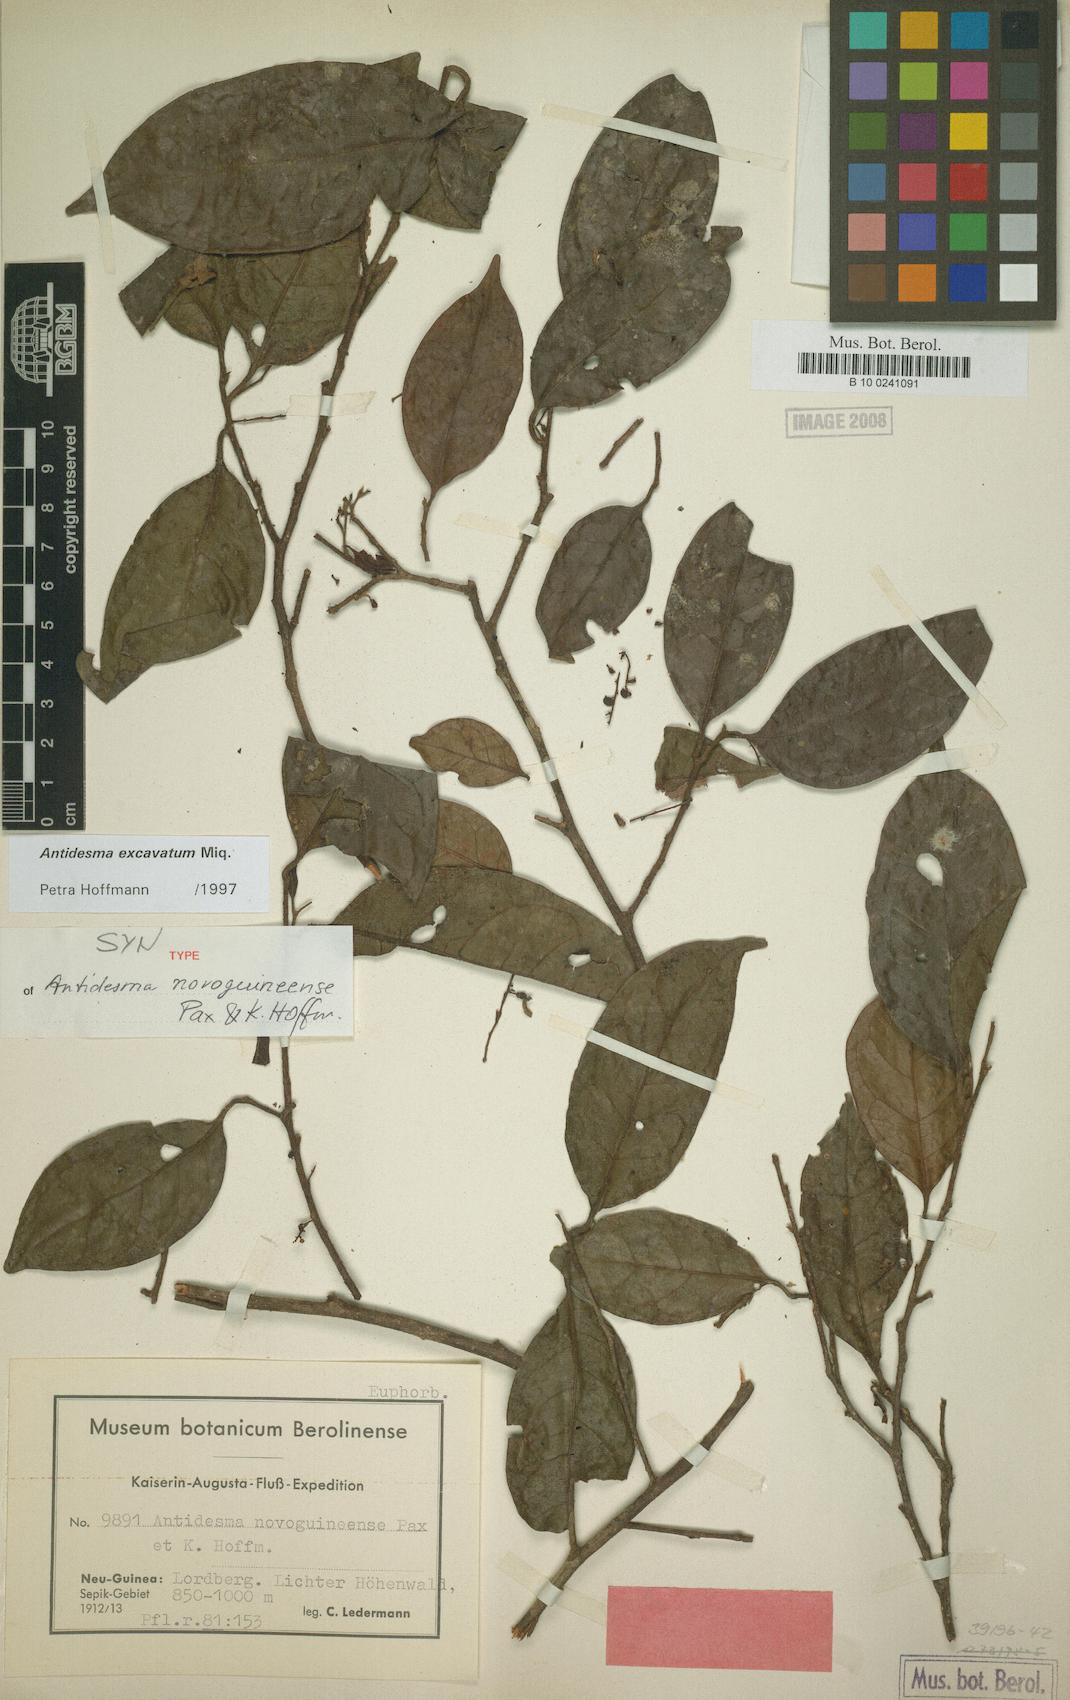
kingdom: Plantae
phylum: Tracheophyta
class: Magnoliopsida
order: Malpighiales
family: Phyllanthaceae
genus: Antidesma
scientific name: Antidesma excavatum
